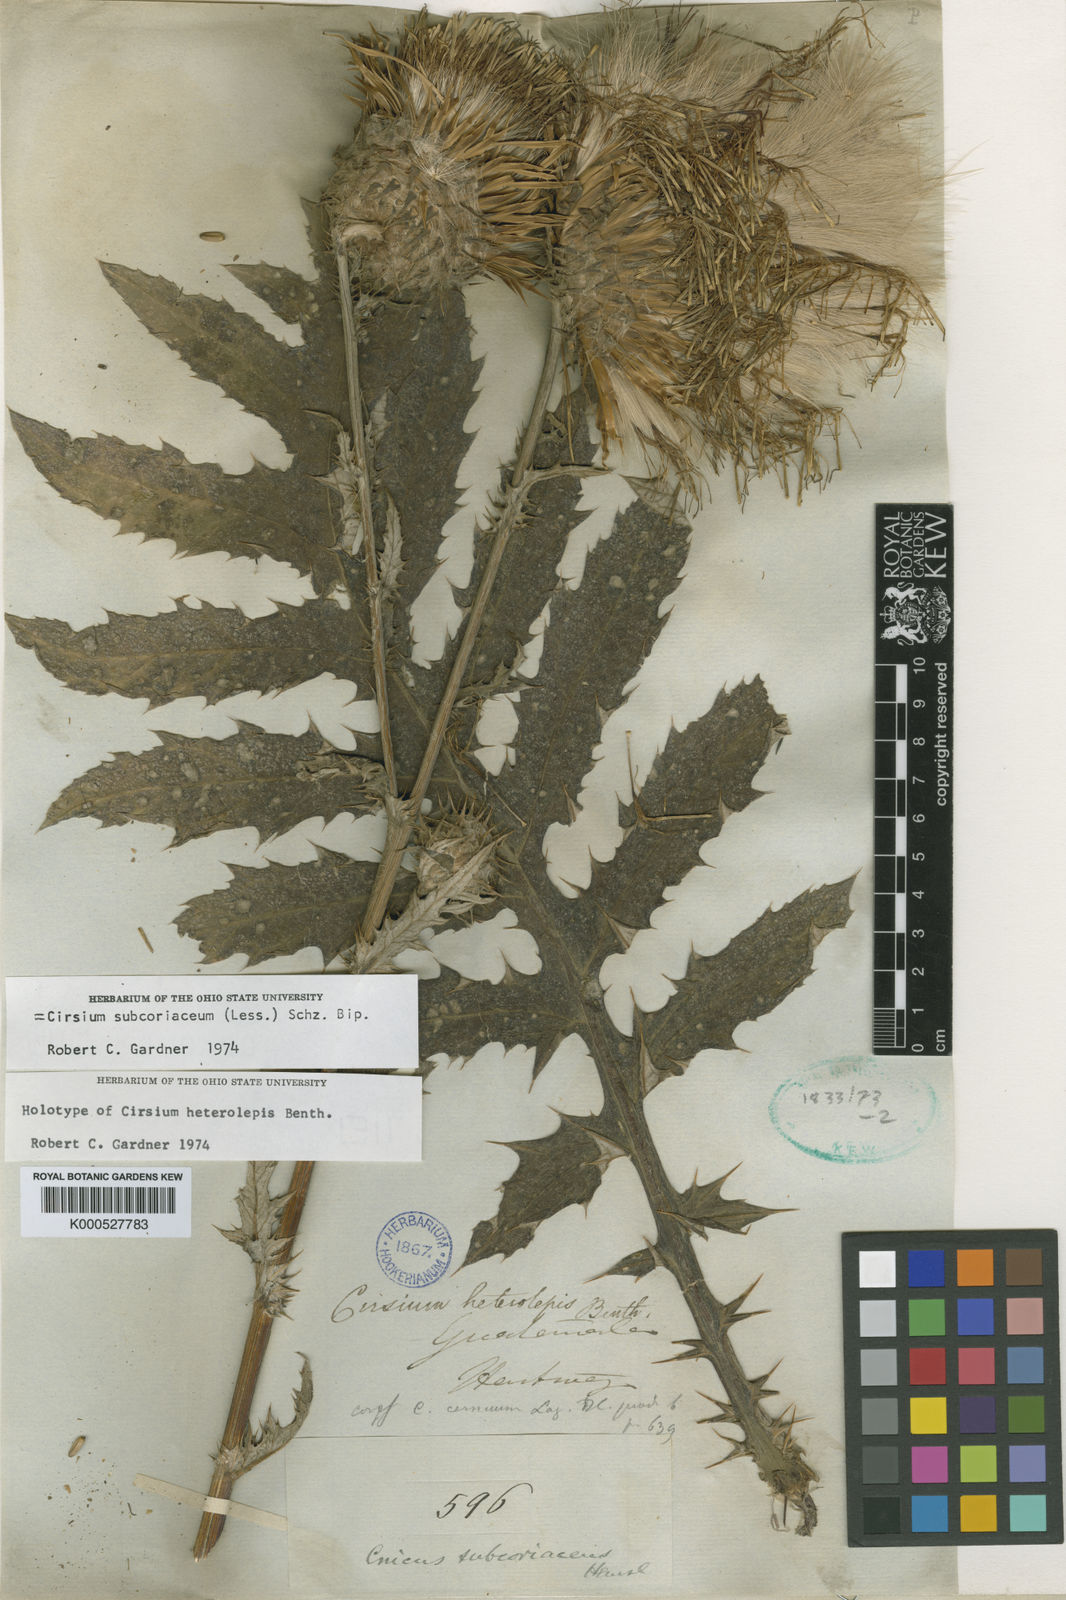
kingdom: Plantae
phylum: Tracheophyta
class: Magnoliopsida
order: Asterales
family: Asteraceae
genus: Cirsium
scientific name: Cirsium subcoriaceum
